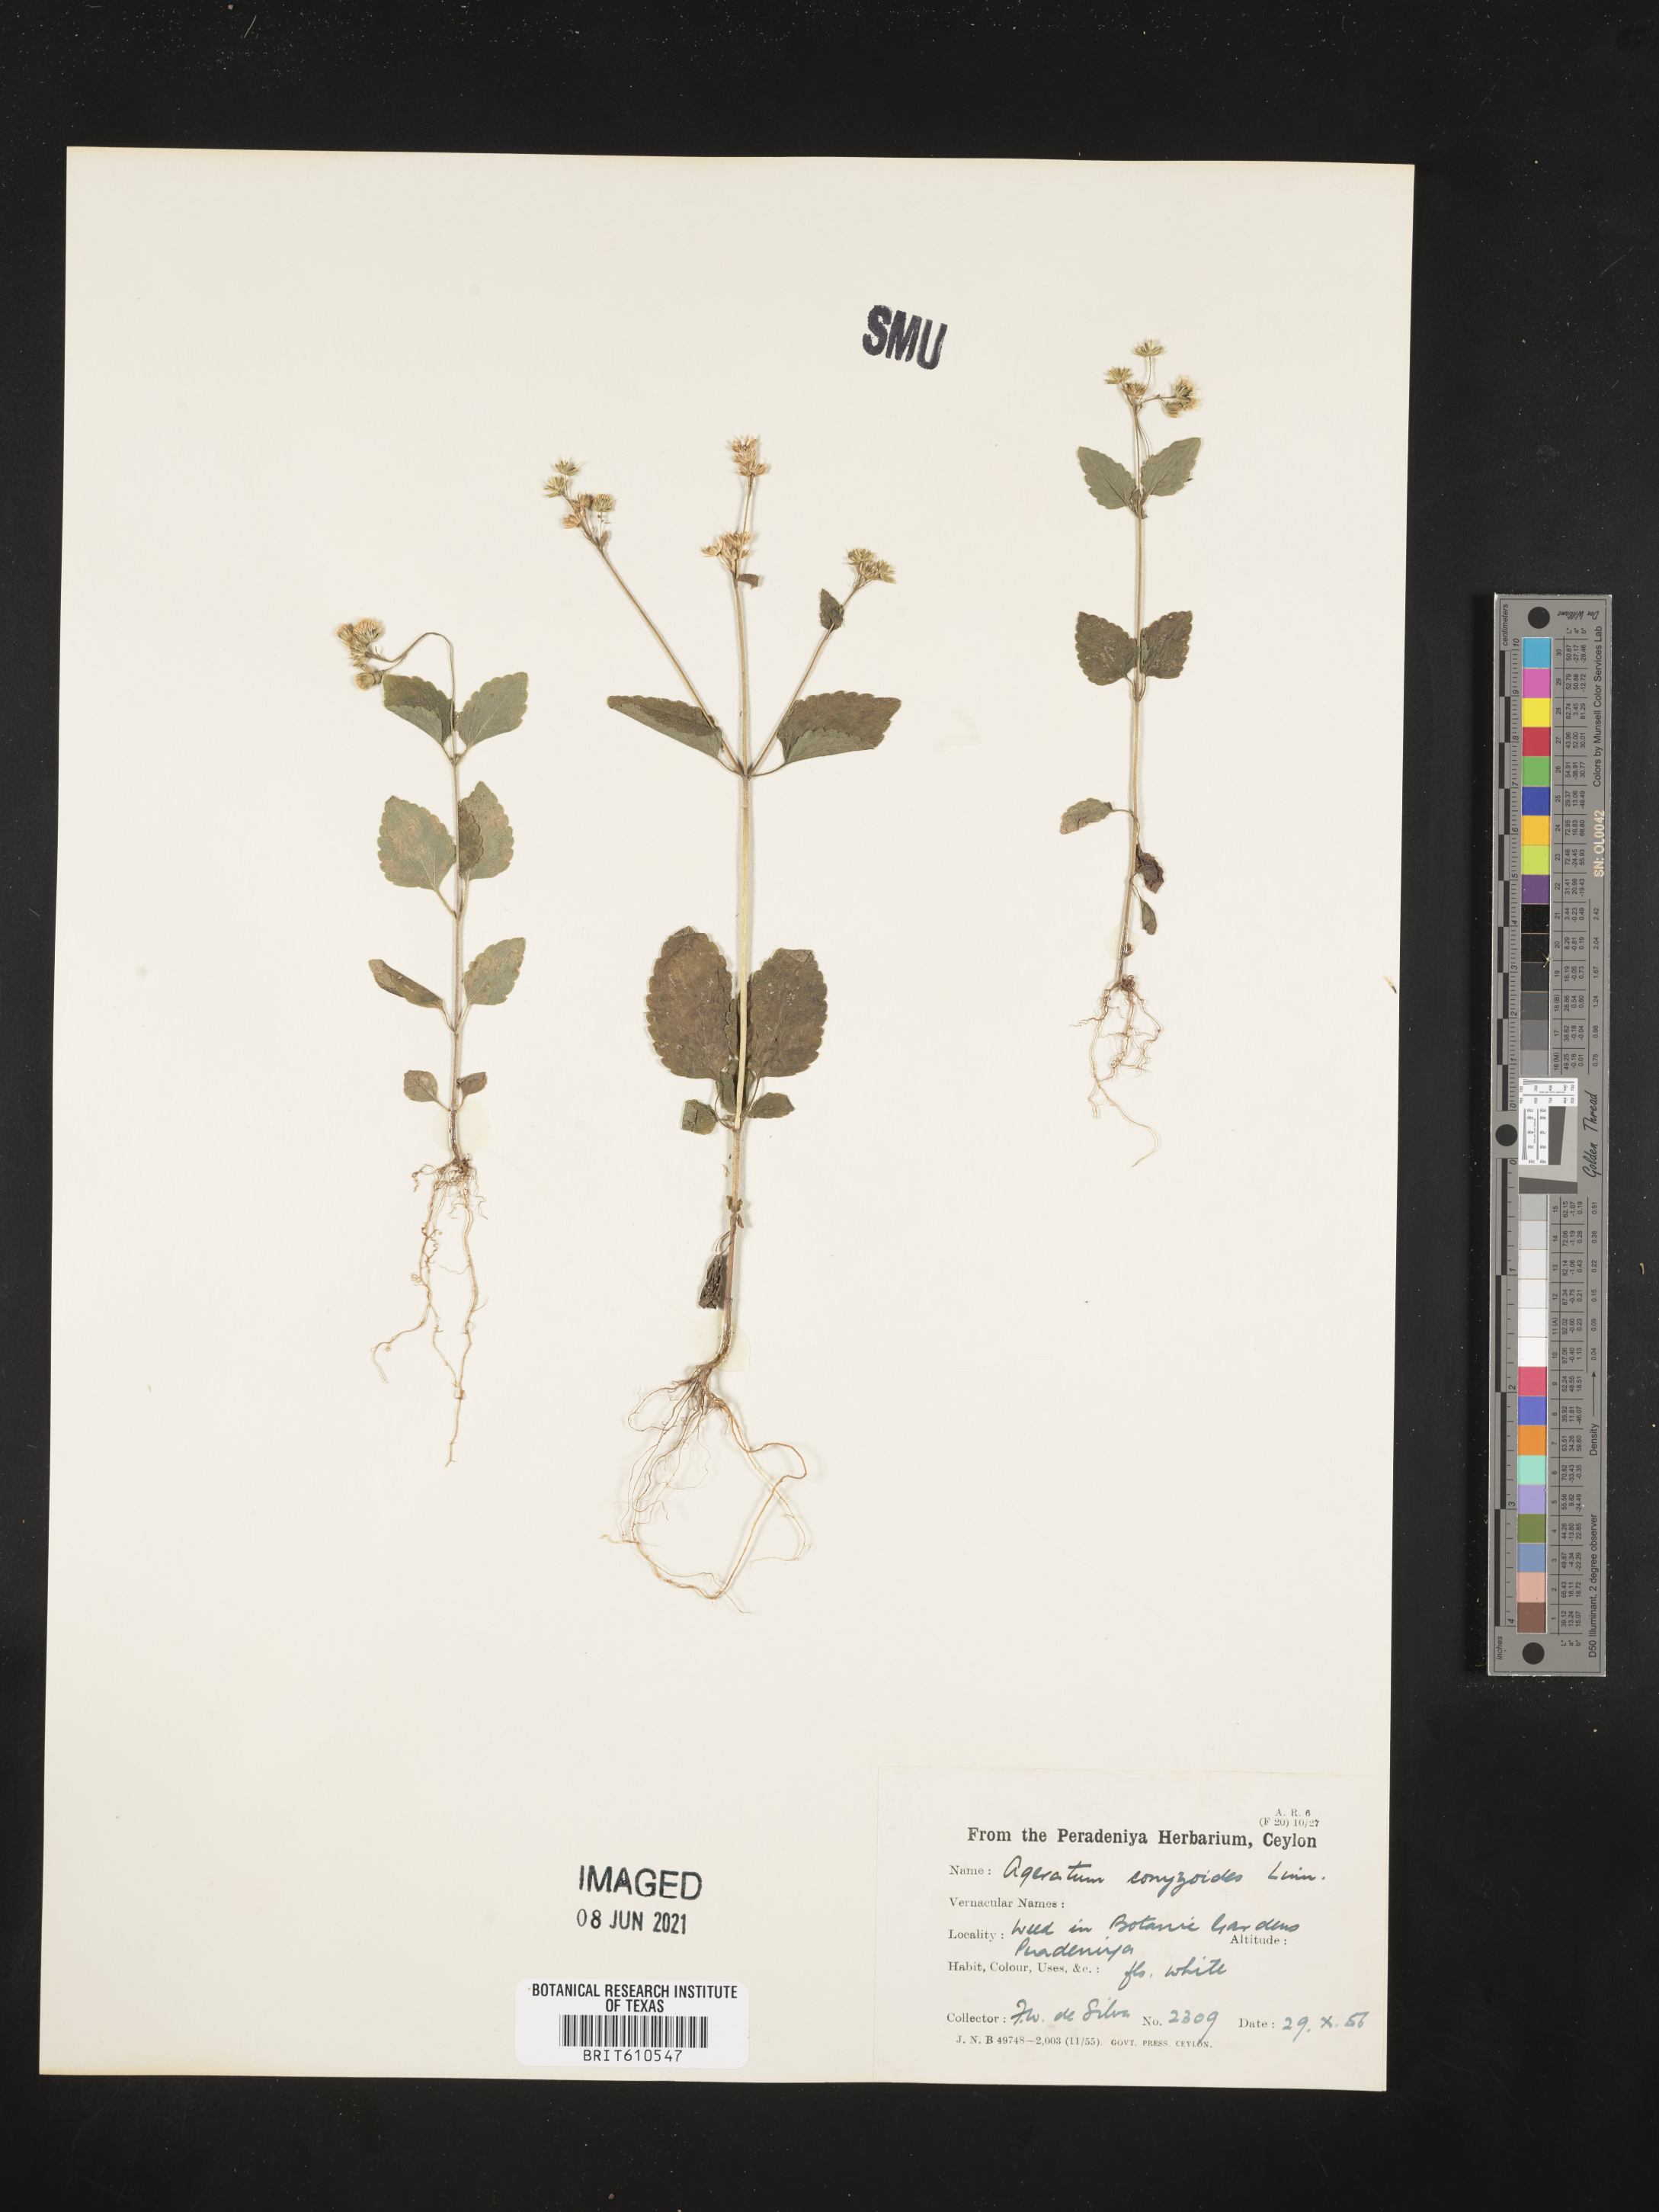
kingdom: Plantae
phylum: Tracheophyta
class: Magnoliopsida
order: Asterales
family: Asteraceae
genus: Chromolaena
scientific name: Chromolaena corymbosa
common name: Caribbean thoroughwort
